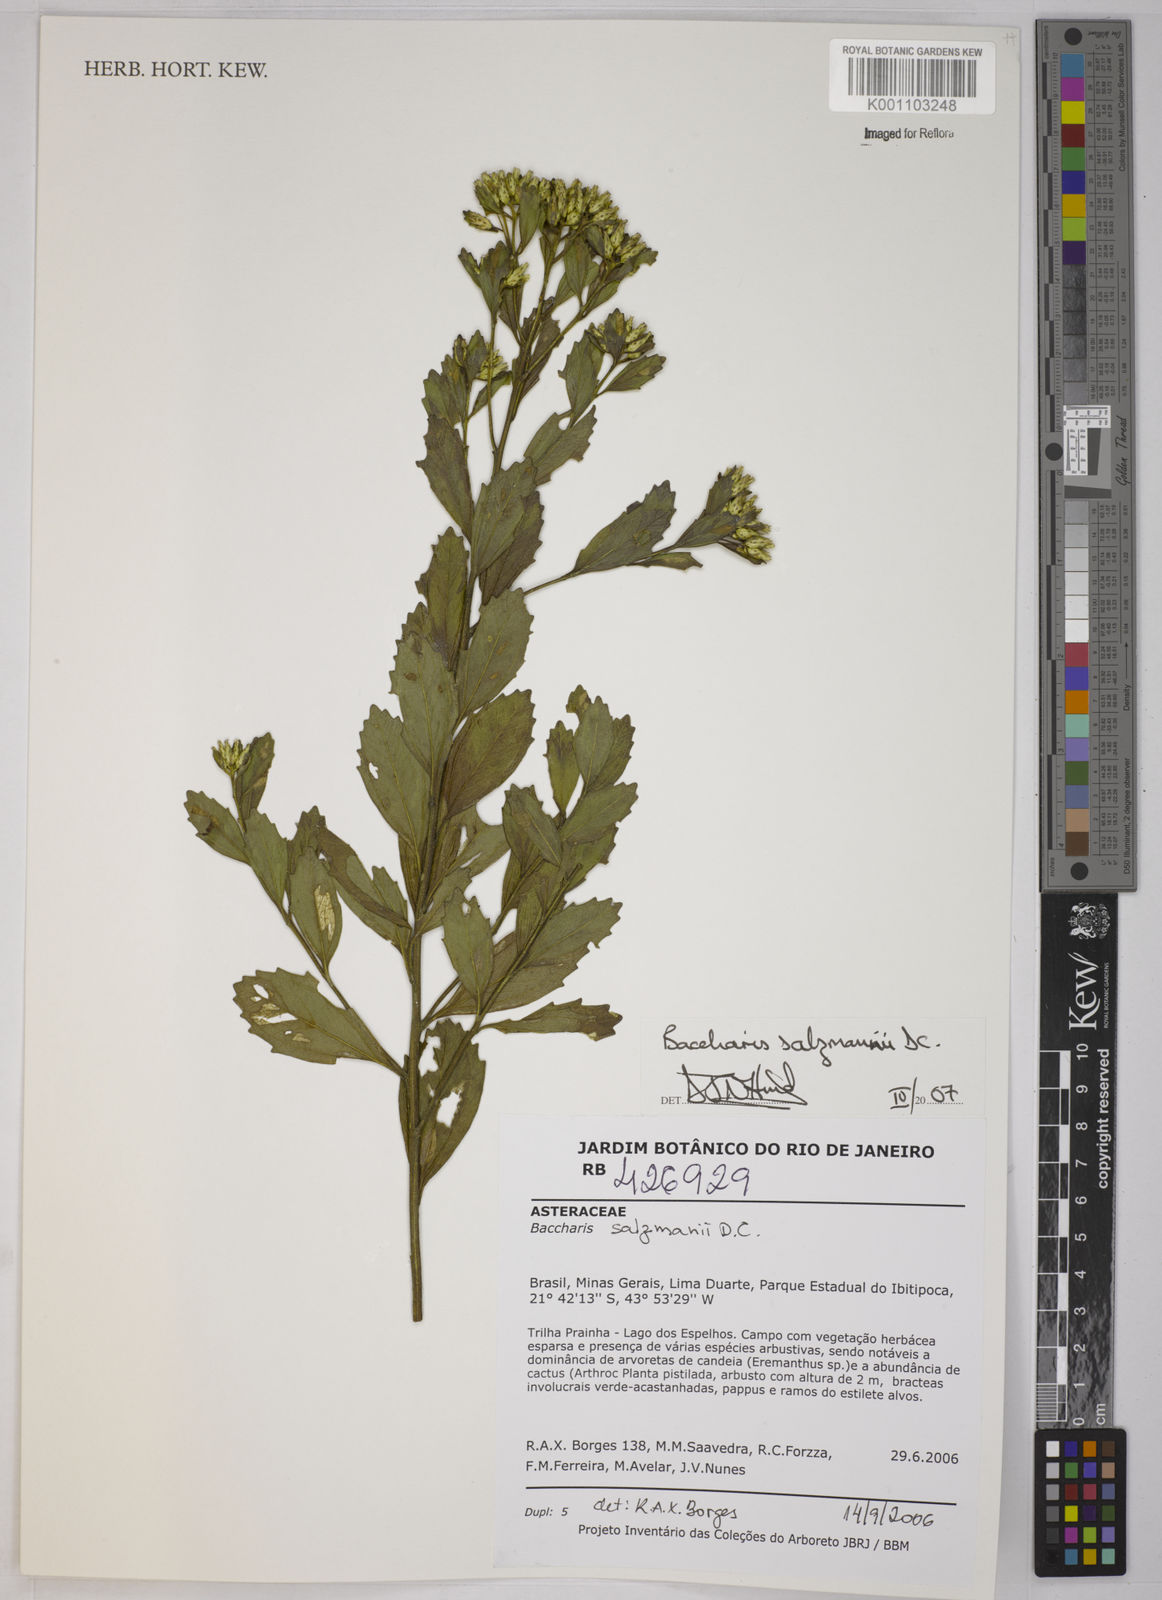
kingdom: Plantae
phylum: Tracheophyta
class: Magnoliopsida
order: Asterales
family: Asteraceae
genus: Baccharis
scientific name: Baccharis retusa
